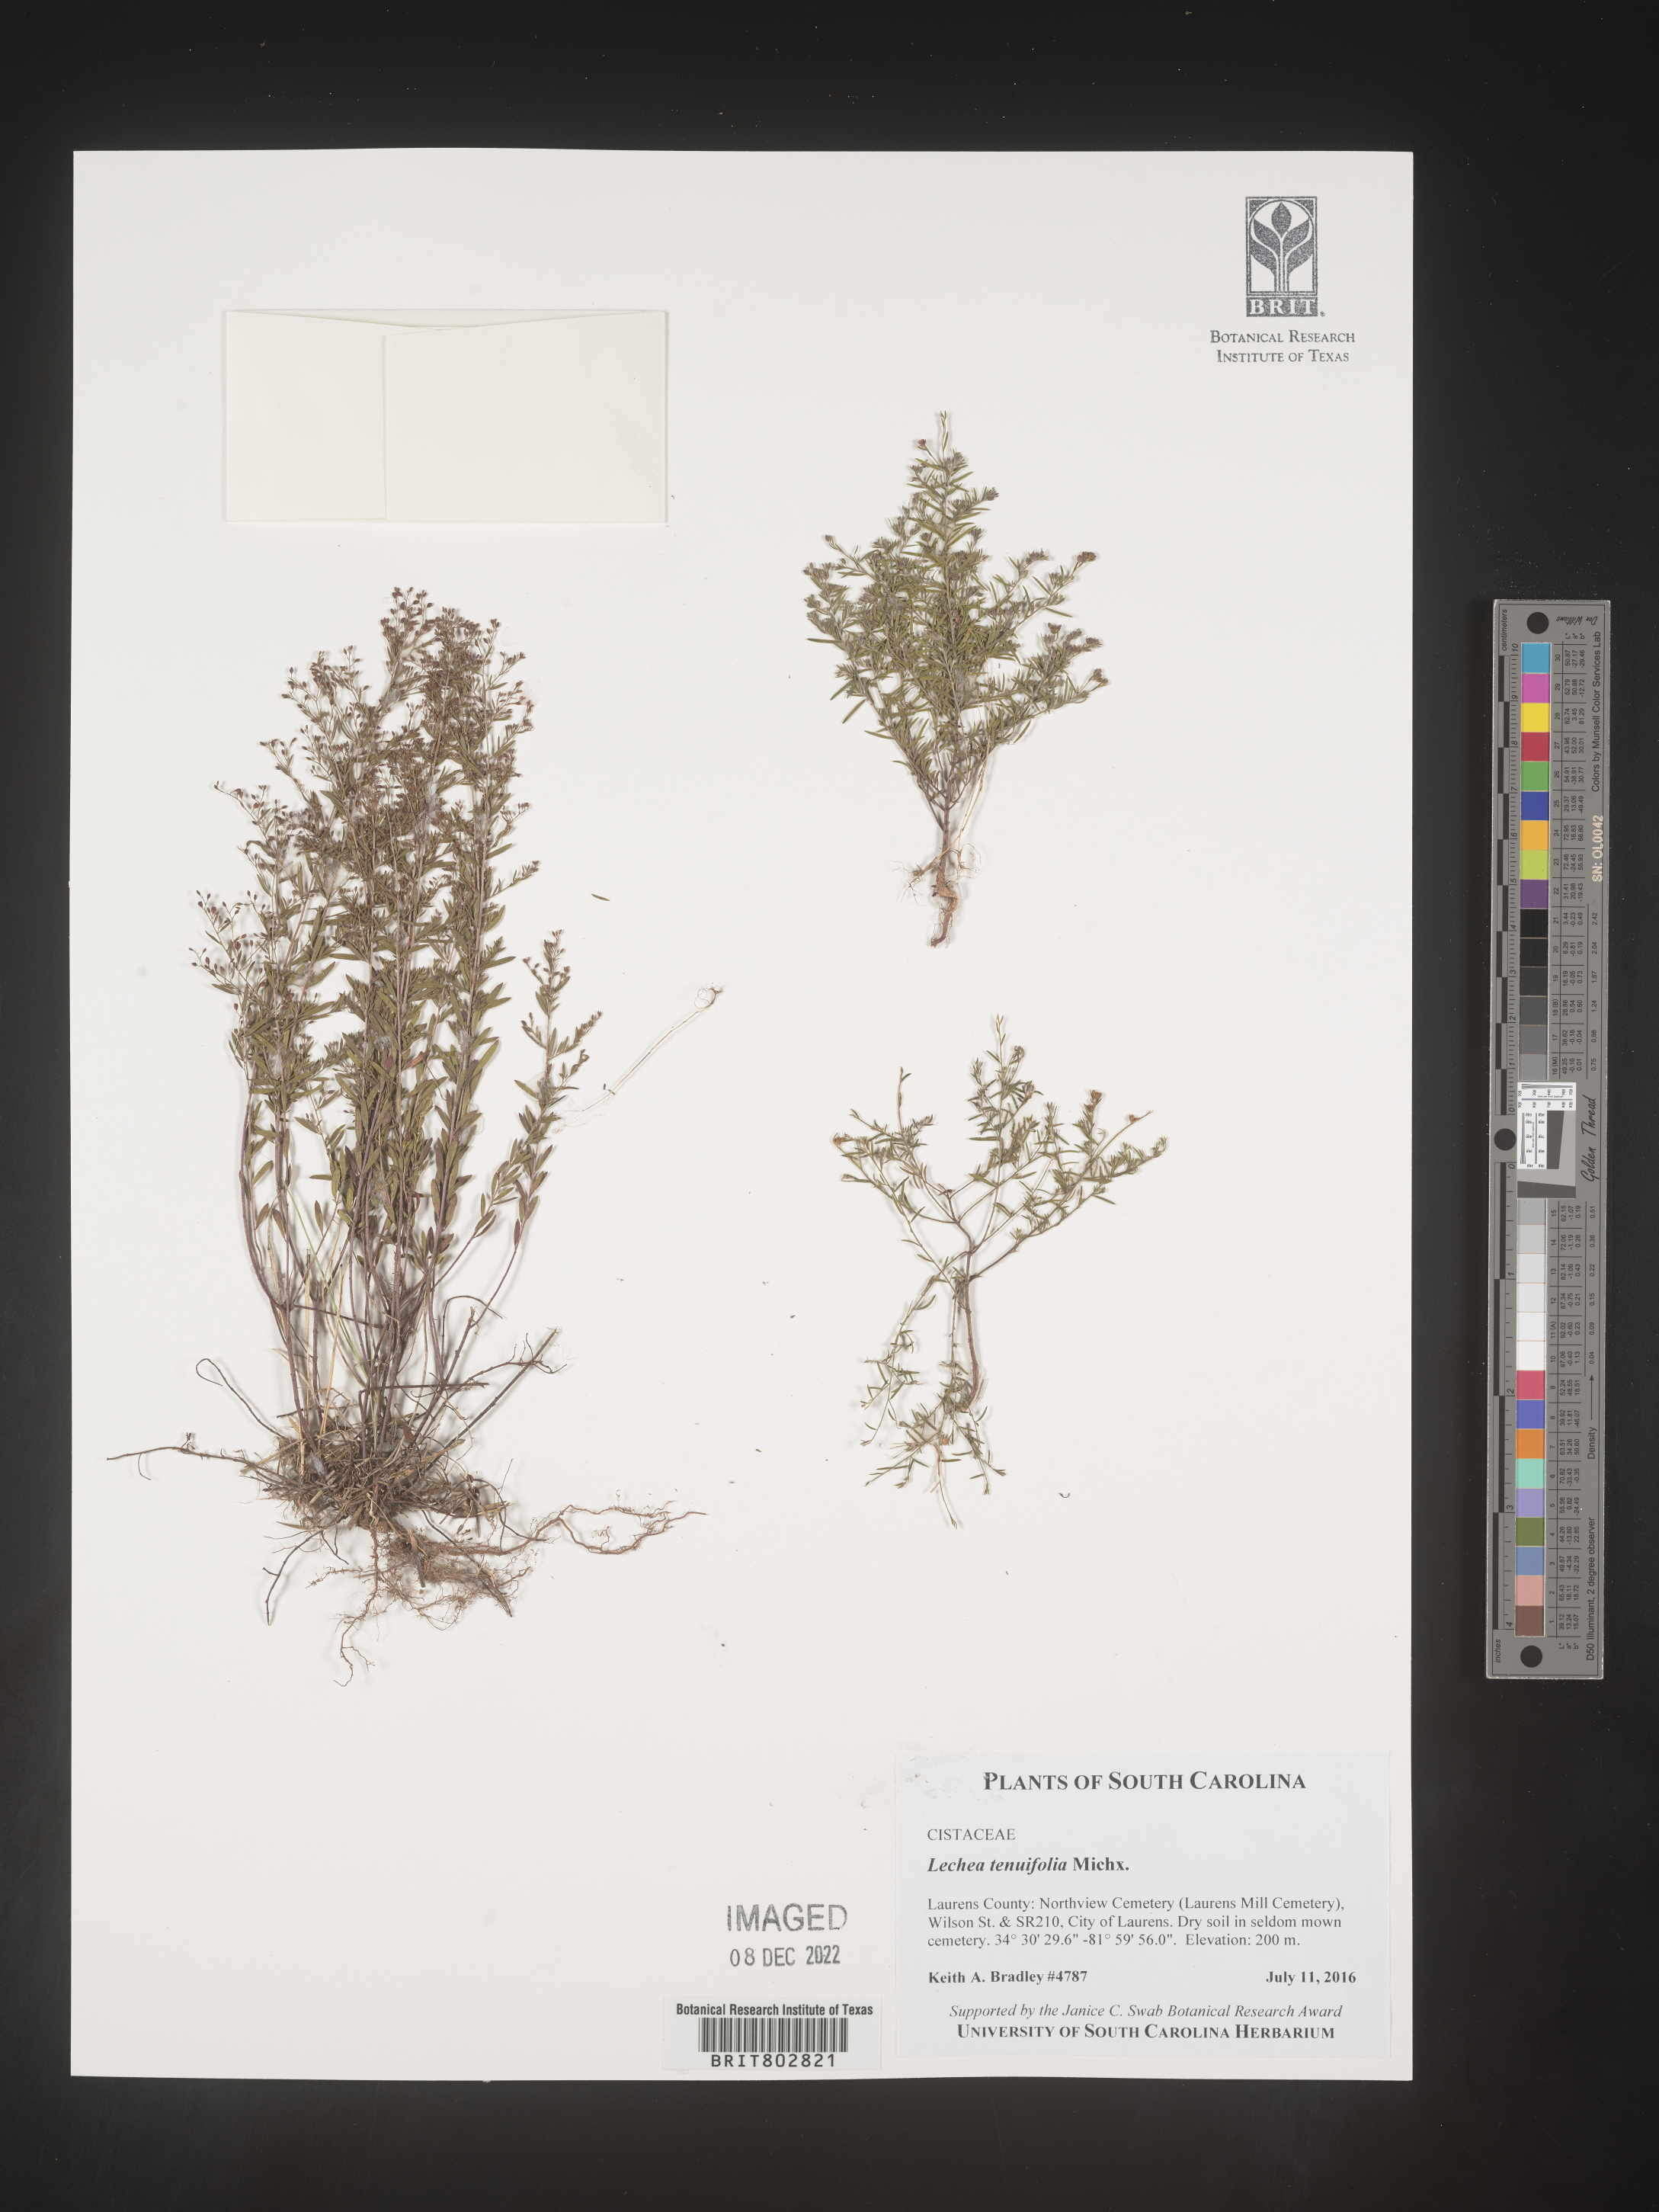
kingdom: Plantae
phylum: Tracheophyta
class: Magnoliopsida
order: Malvales
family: Cistaceae
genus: Lechea
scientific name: Lechea tenuifolia
